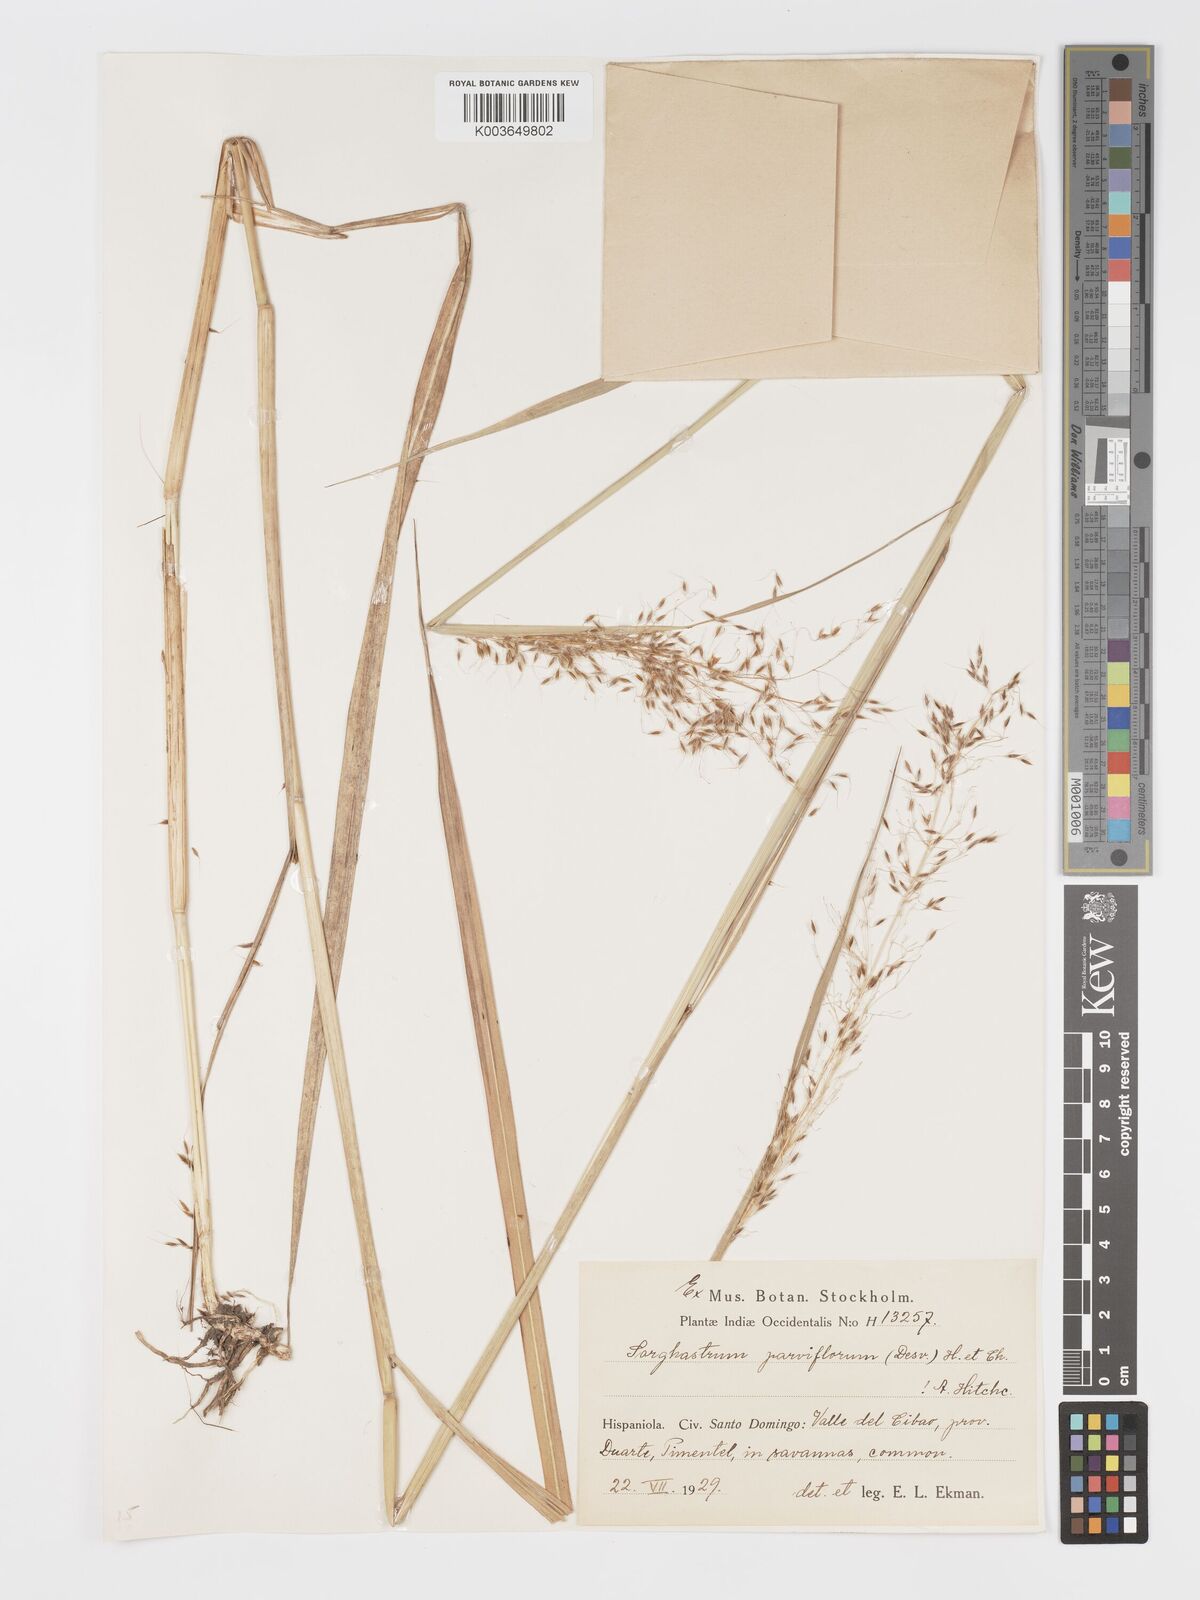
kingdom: Plantae
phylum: Tracheophyta
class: Liliopsida
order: Poales
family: Poaceae
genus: Sorghastrum
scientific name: Sorghastrum setosum
